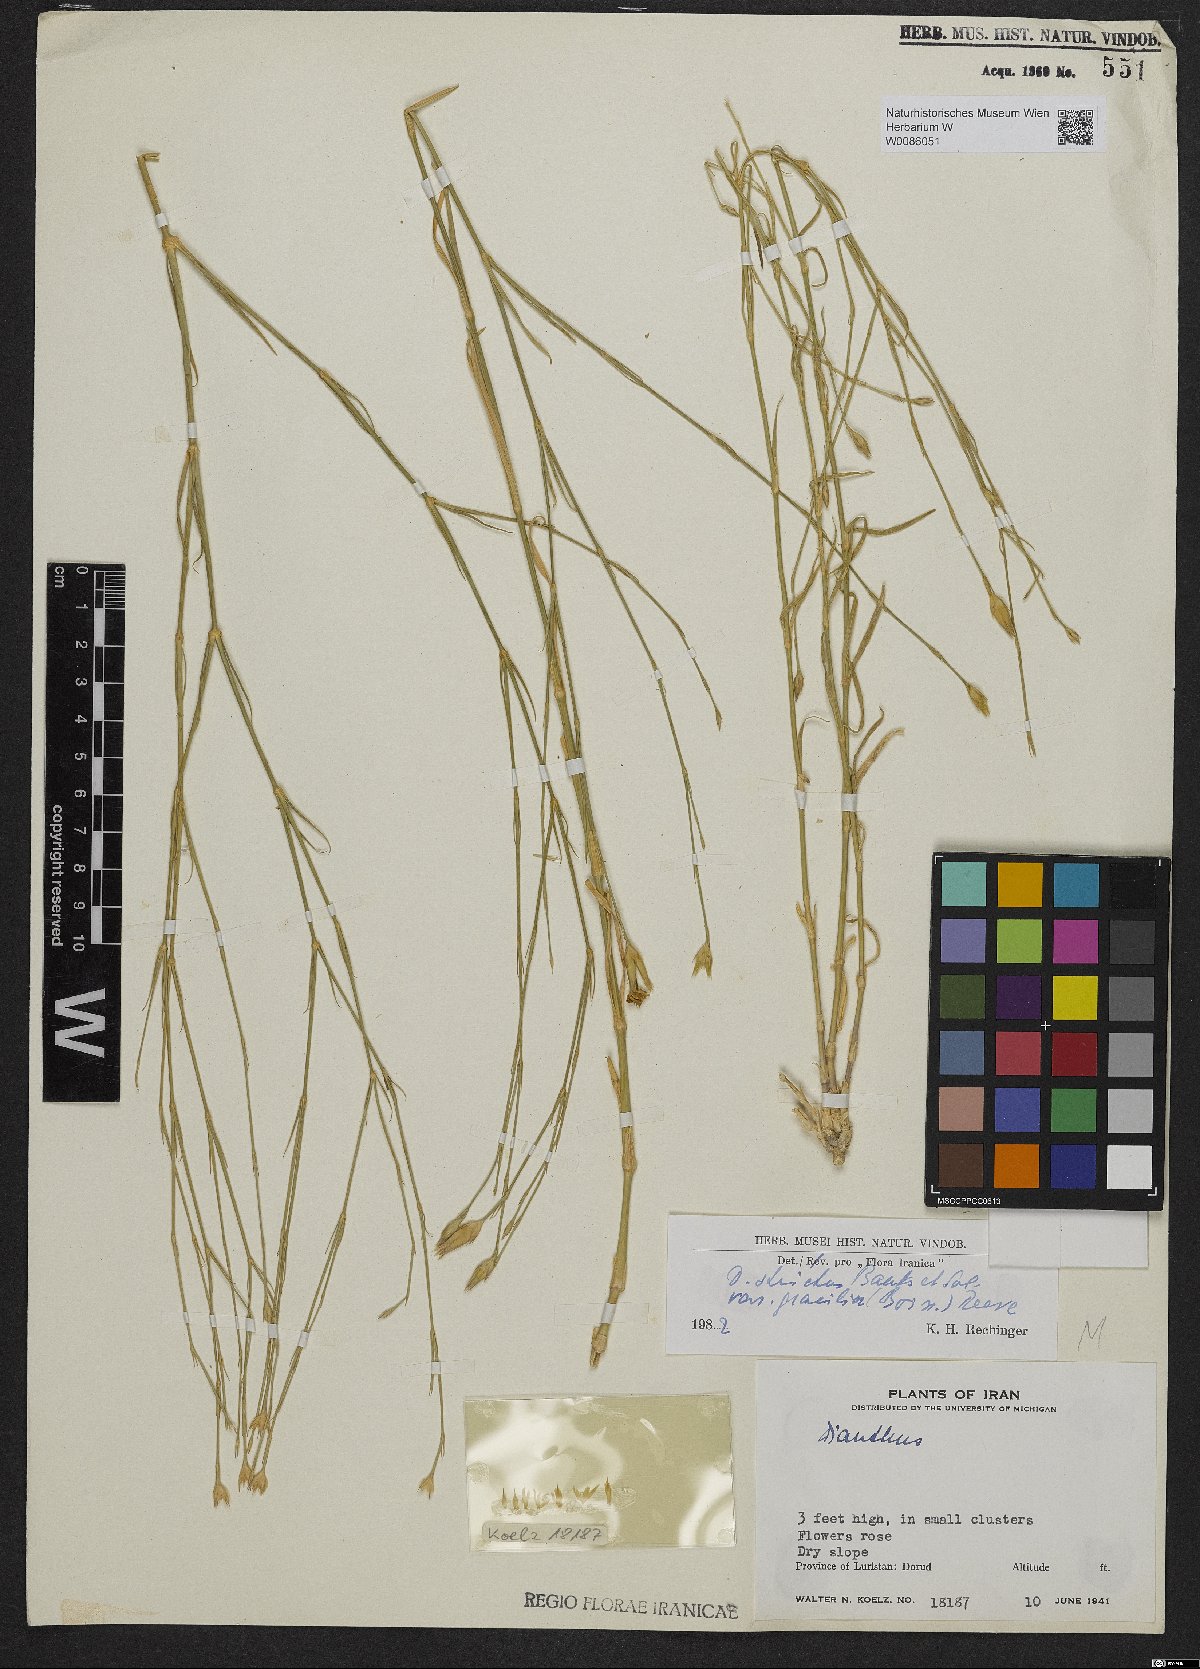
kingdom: Plantae
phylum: Tracheophyta
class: Magnoliopsida
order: Caryophyllales
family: Caryophyllaceae
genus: Dianthus
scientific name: Dianthus strictus
